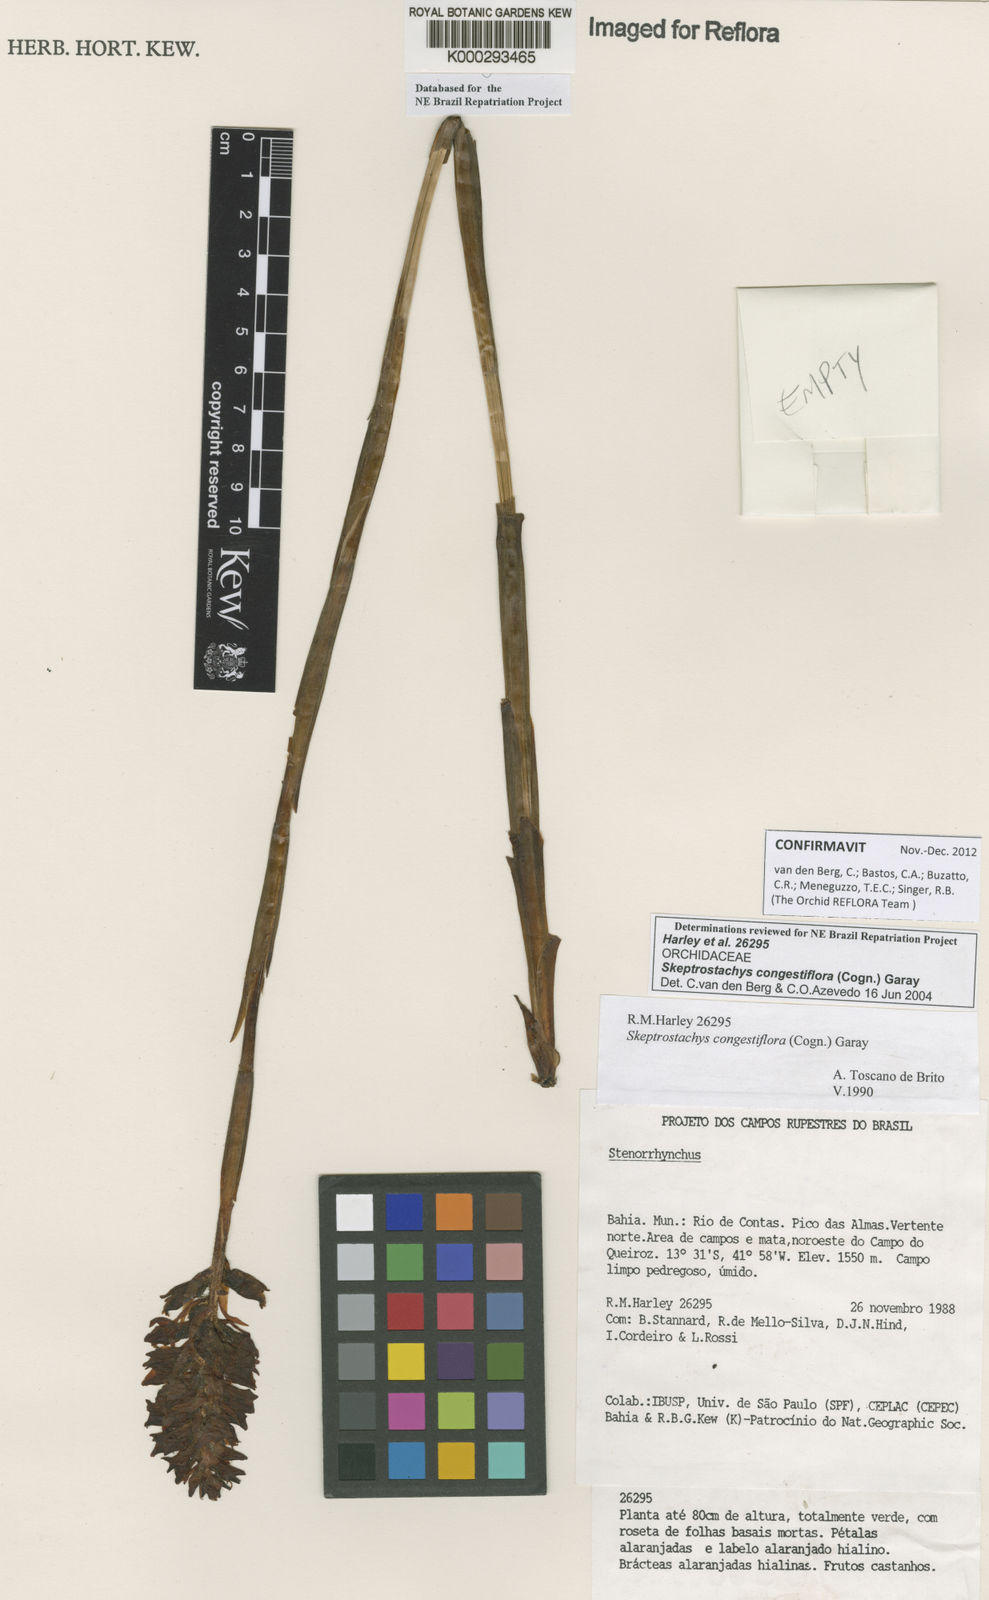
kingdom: Plantae
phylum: Tracheophyta
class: Liliopsida
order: Asparagales
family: Orchidaceae
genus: Skeptrostachys
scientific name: Skeptrostachys congestiflora
